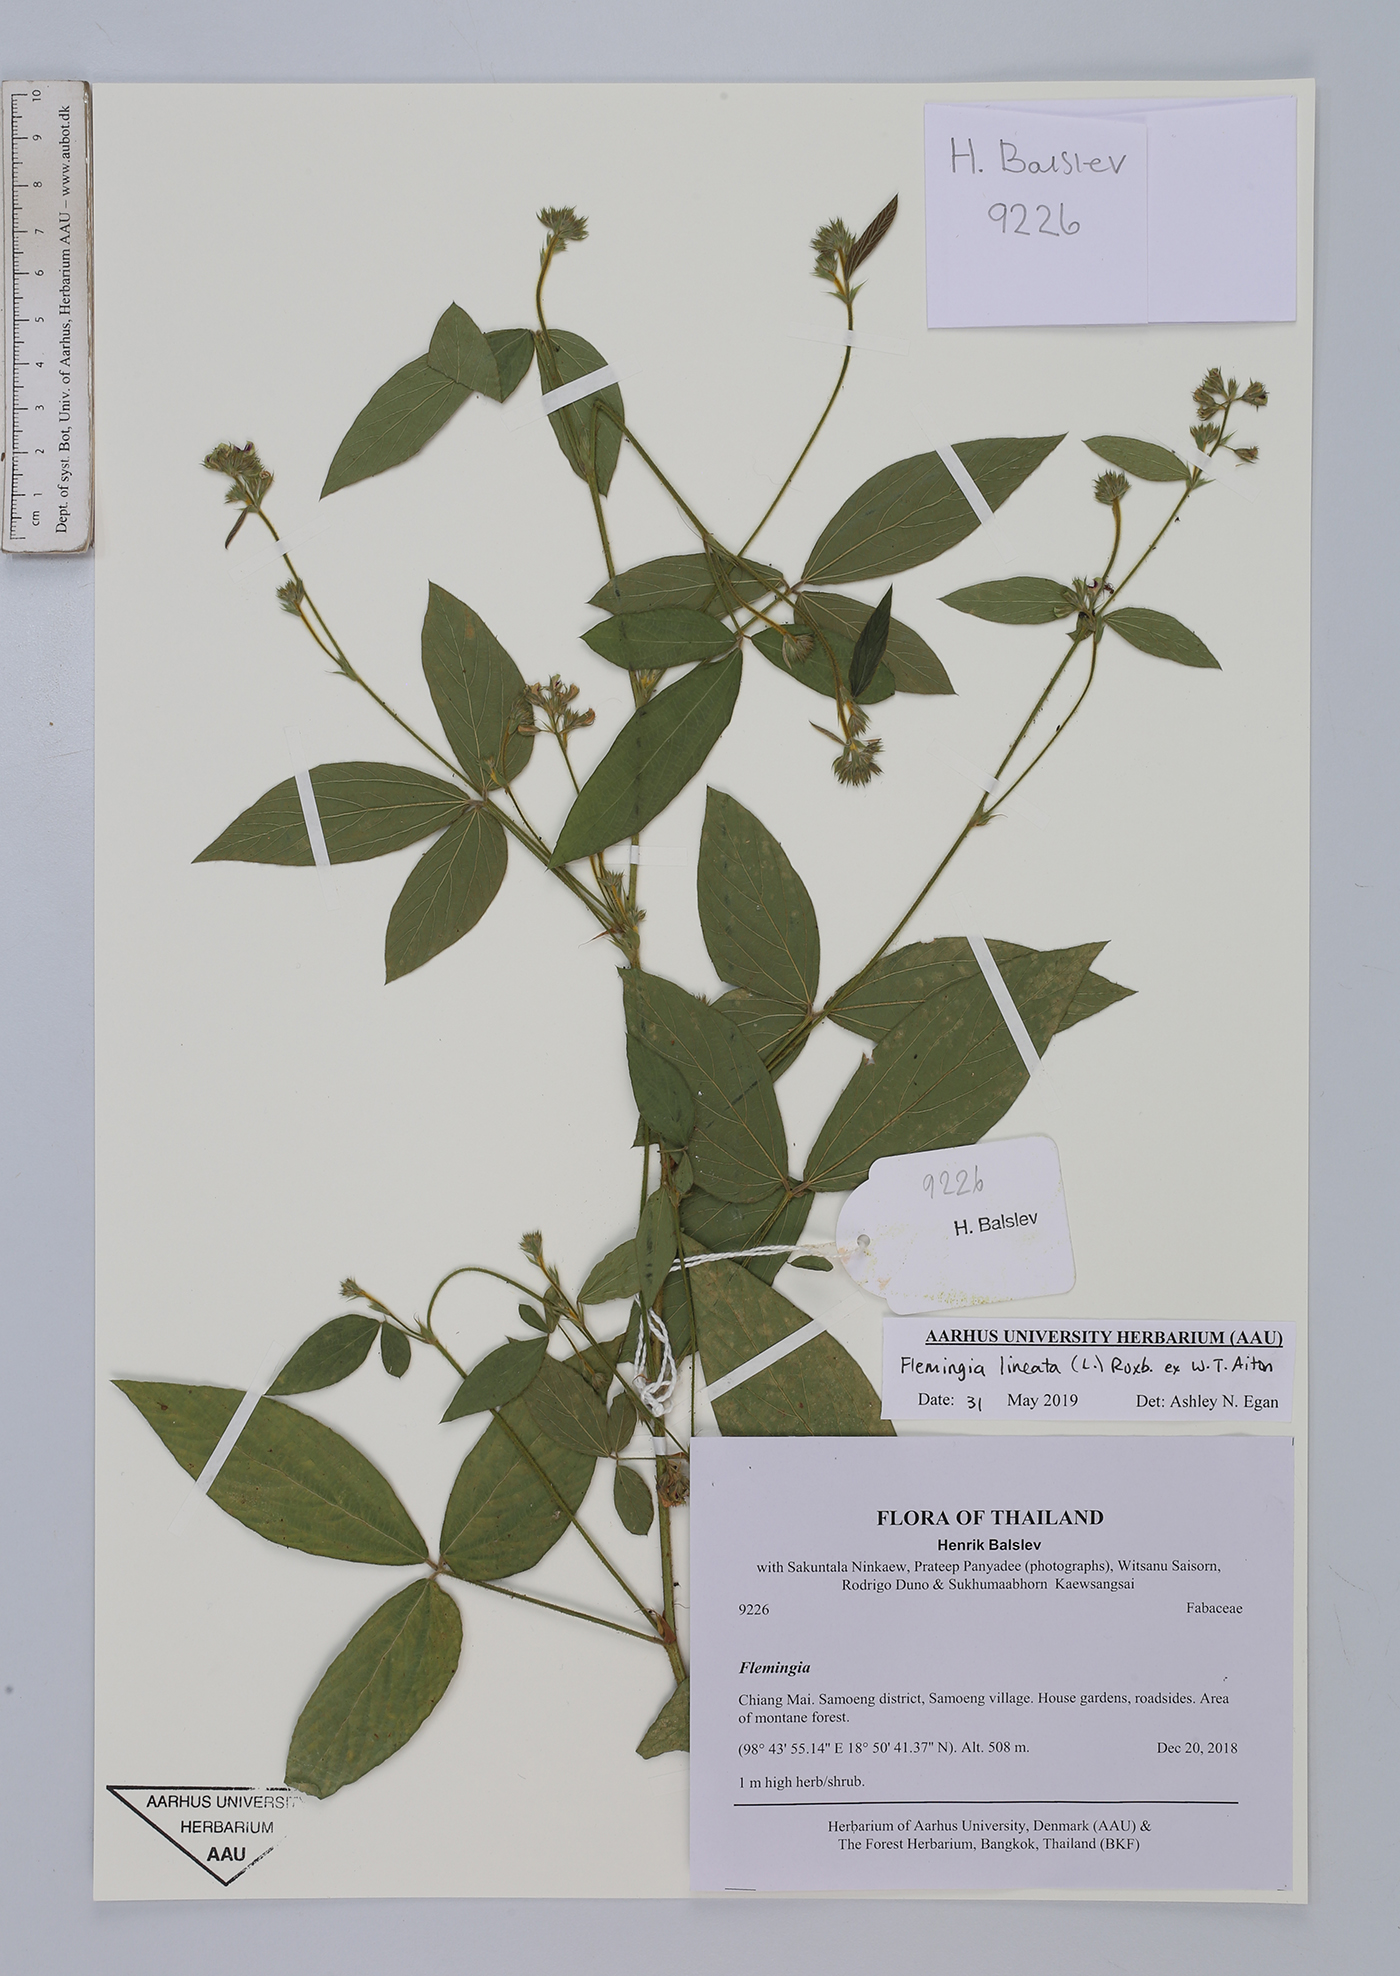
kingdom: Plantae
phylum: Tracheophyta
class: Magnoliopsida
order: Fabales
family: Fabaceae
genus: Flemingia
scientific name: Flemingia lineata
